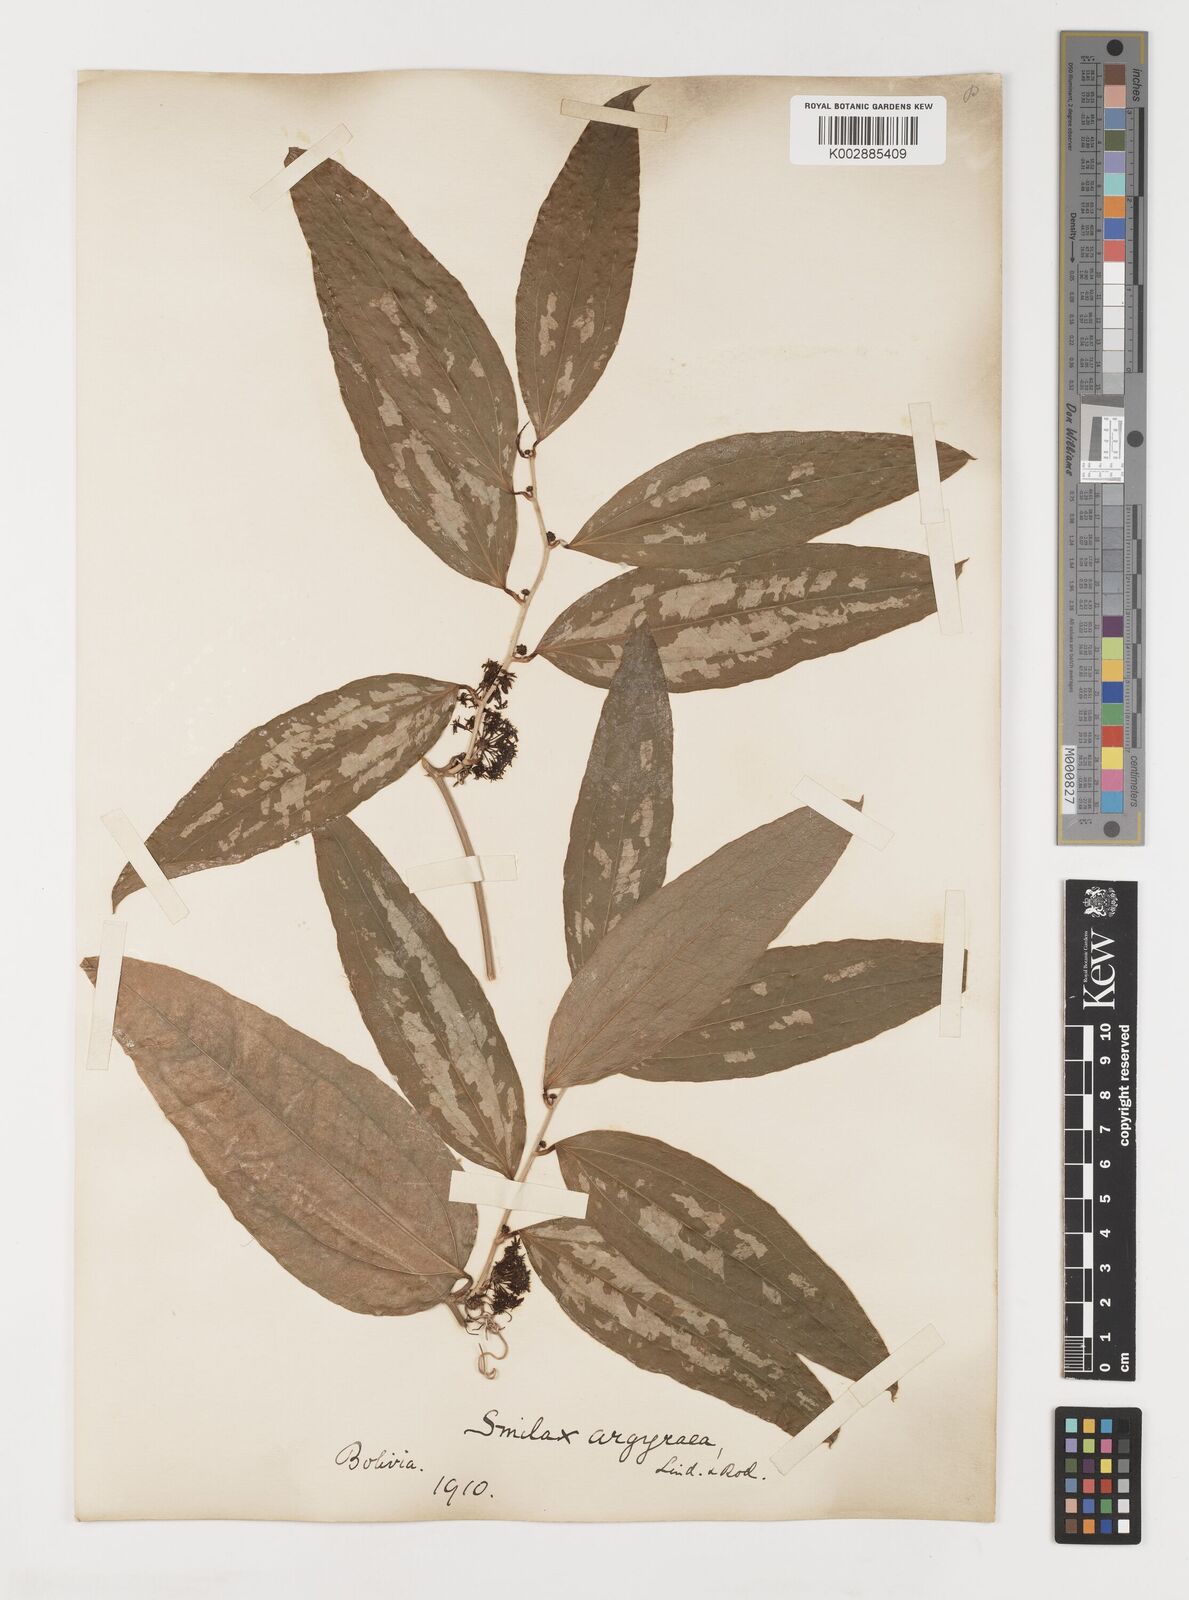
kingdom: Plantae
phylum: Tracheophyta
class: Liliopsida
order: Liliales
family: Smilacaceae
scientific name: Smilacaceae
